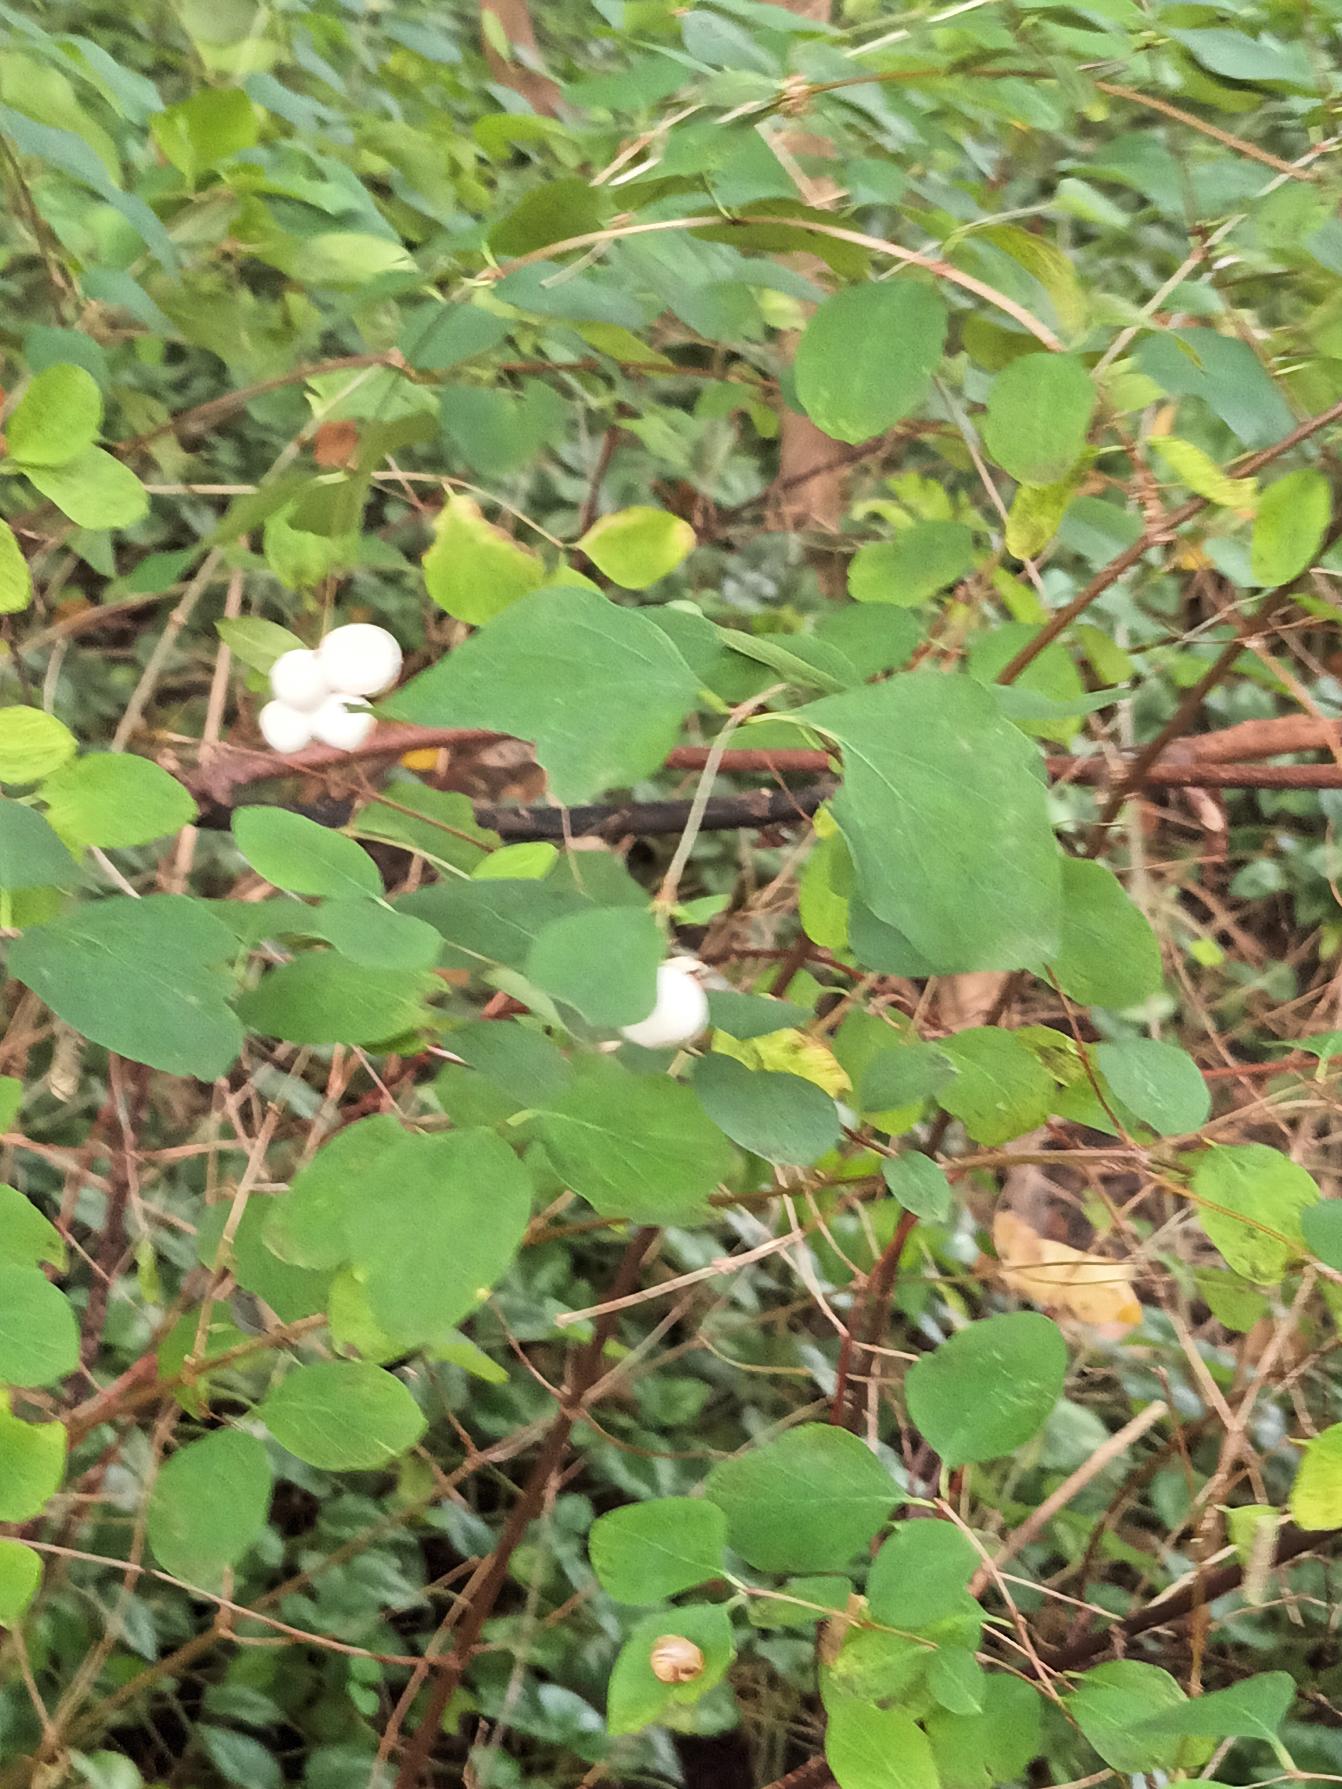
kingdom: Plantae
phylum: Tracheophyta
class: Magnoliopsida
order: Dipsacales
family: Caprifoliaceae
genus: Symphoricarpos
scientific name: Symphoricarpos albus
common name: Almindelig snebær
